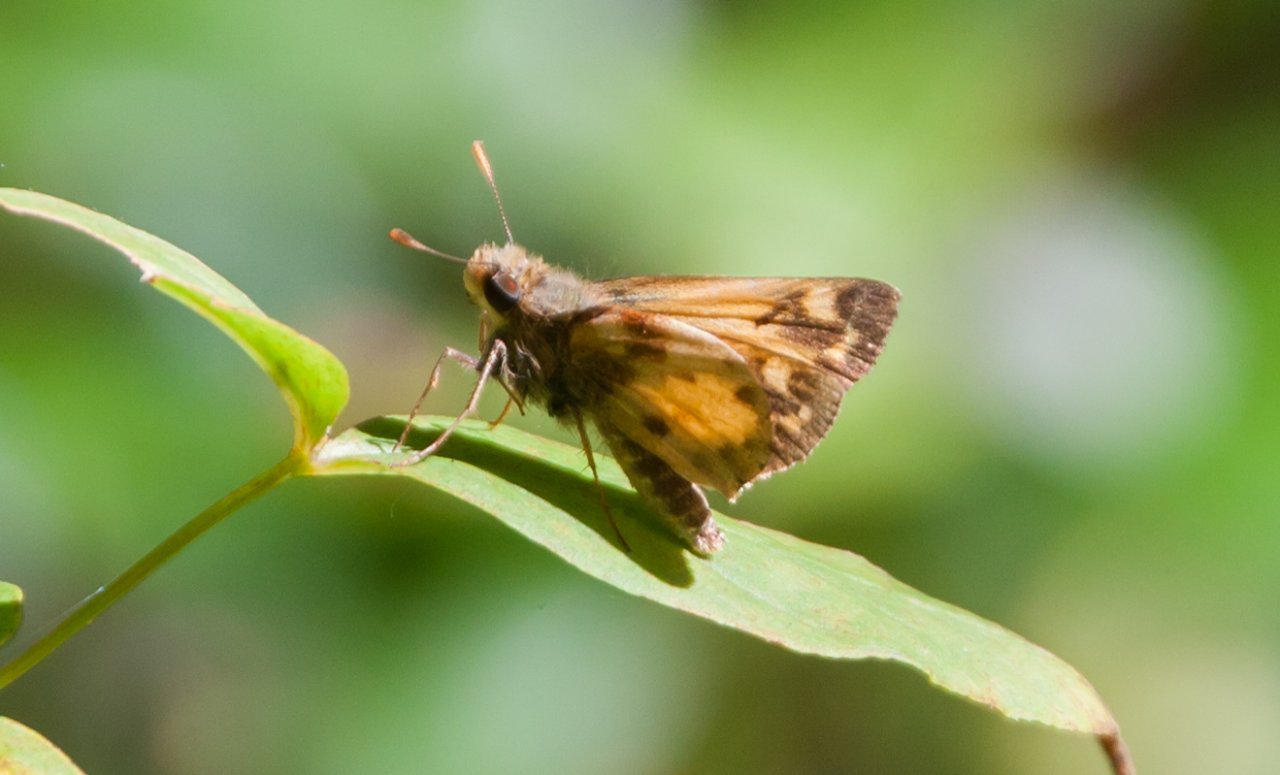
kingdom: Animalia
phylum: Arthropoda
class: Insecta
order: Lepidoptera
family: Hesperiidae
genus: Lon
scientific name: Lon zabulon
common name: Zabulon Skipper
